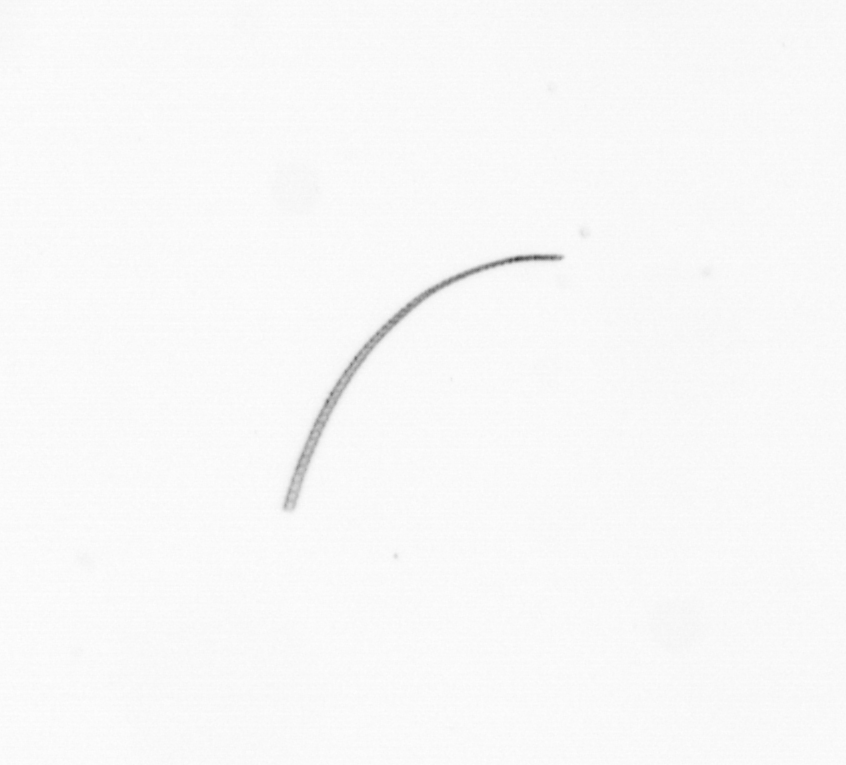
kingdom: Chromista
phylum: Ochrophyta
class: Bacillariophyceae
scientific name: Bacillariophyceae
